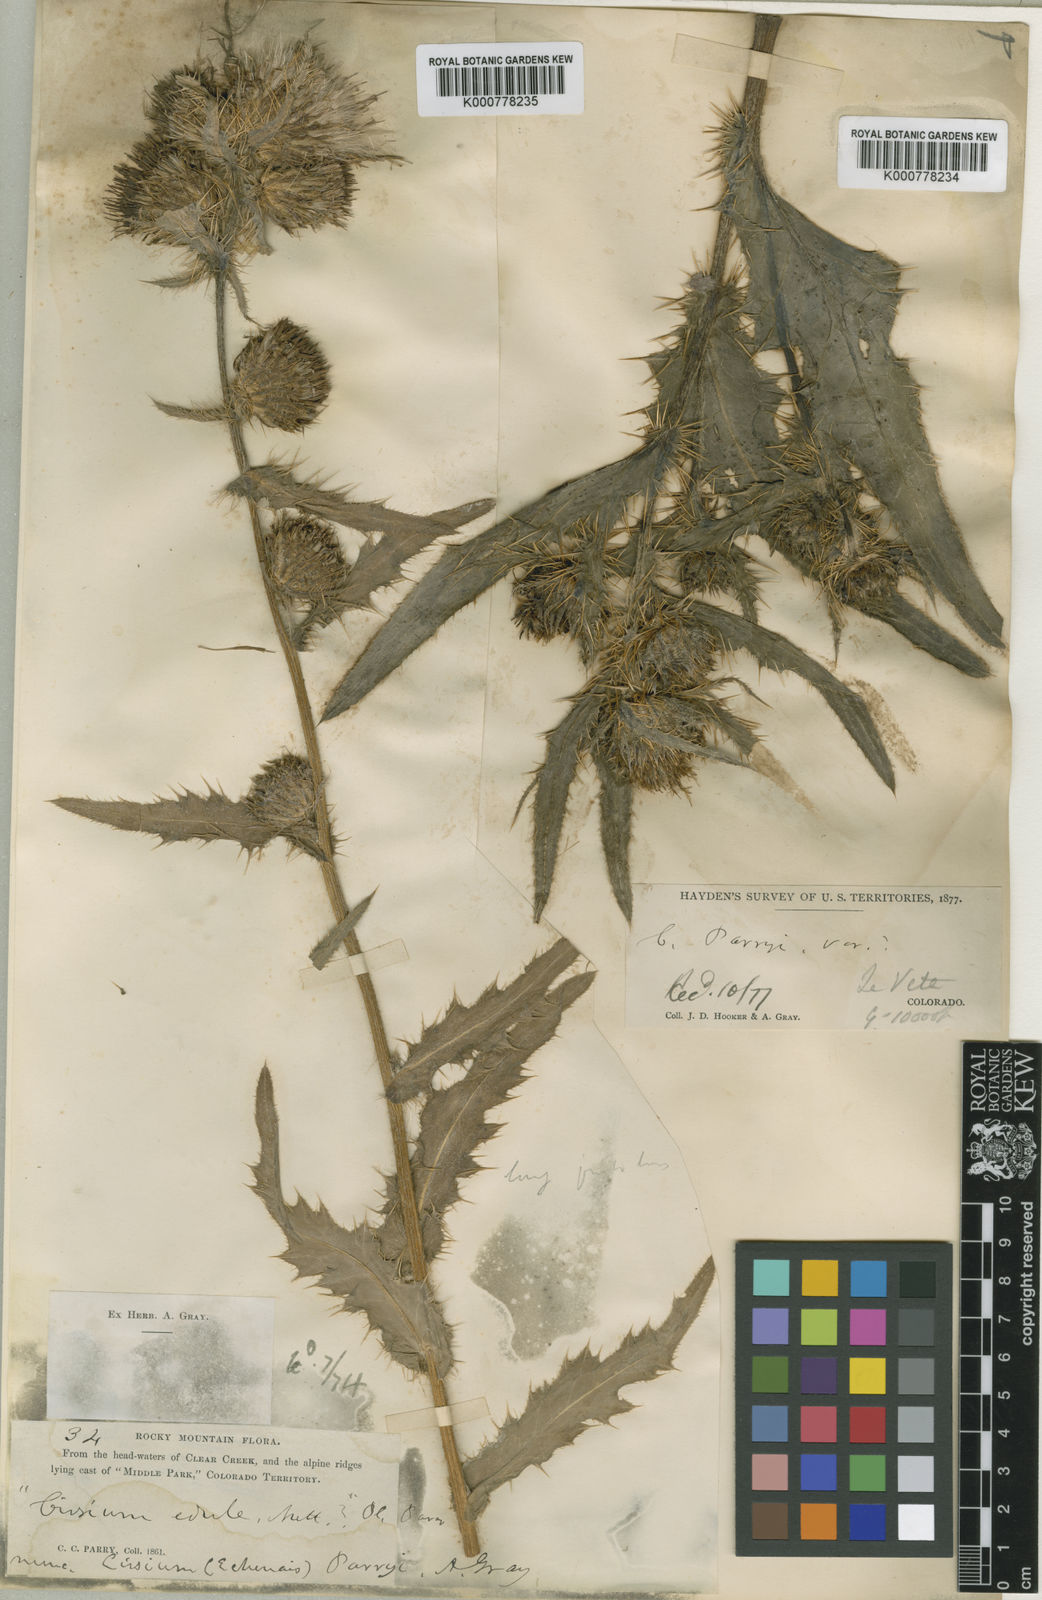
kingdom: Plantae
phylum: Tracheophyta
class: Magnoliopsida
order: Asterales
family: Asteraceae
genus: Cirsium
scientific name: Cirsium parryi
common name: Parry's thistle
